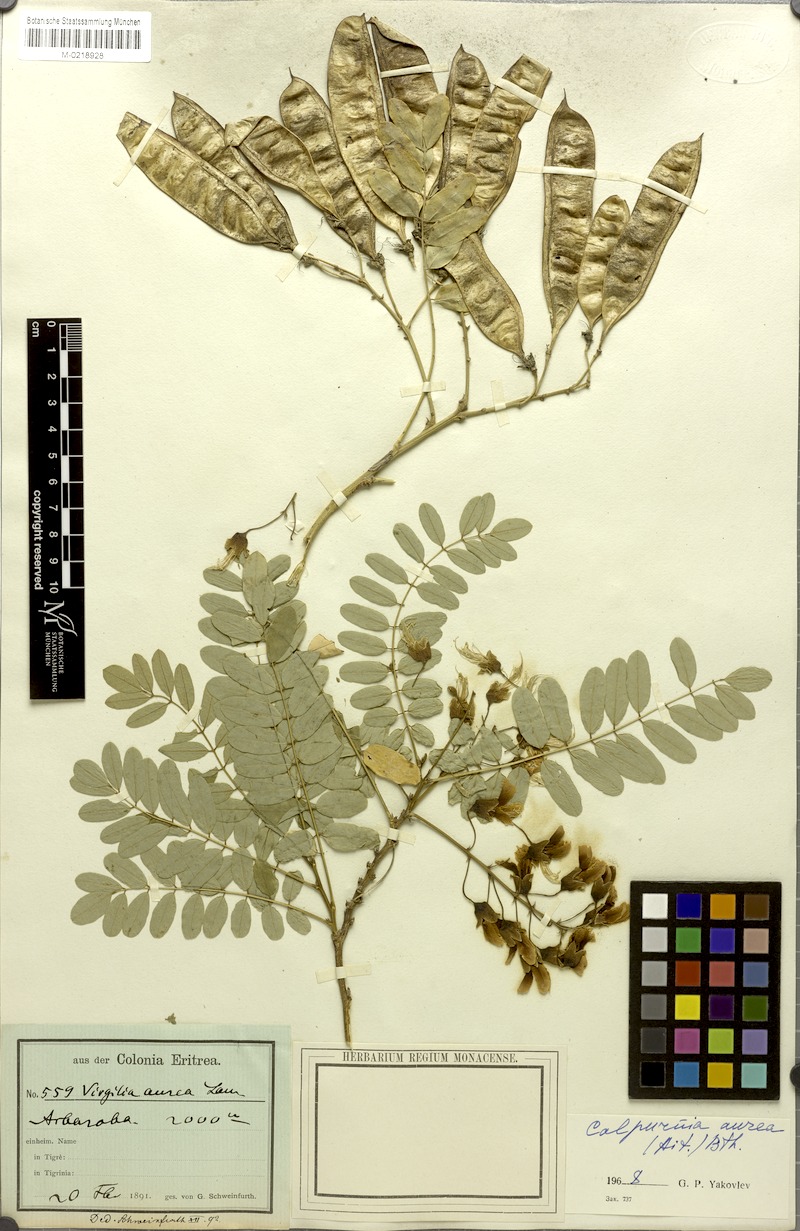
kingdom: Plantae
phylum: Tracheophyta
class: Magnoliopsida
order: Fabales
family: Fabaceae
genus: Calpurnia
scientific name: Calpurnia aurea
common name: Wild laburnum
